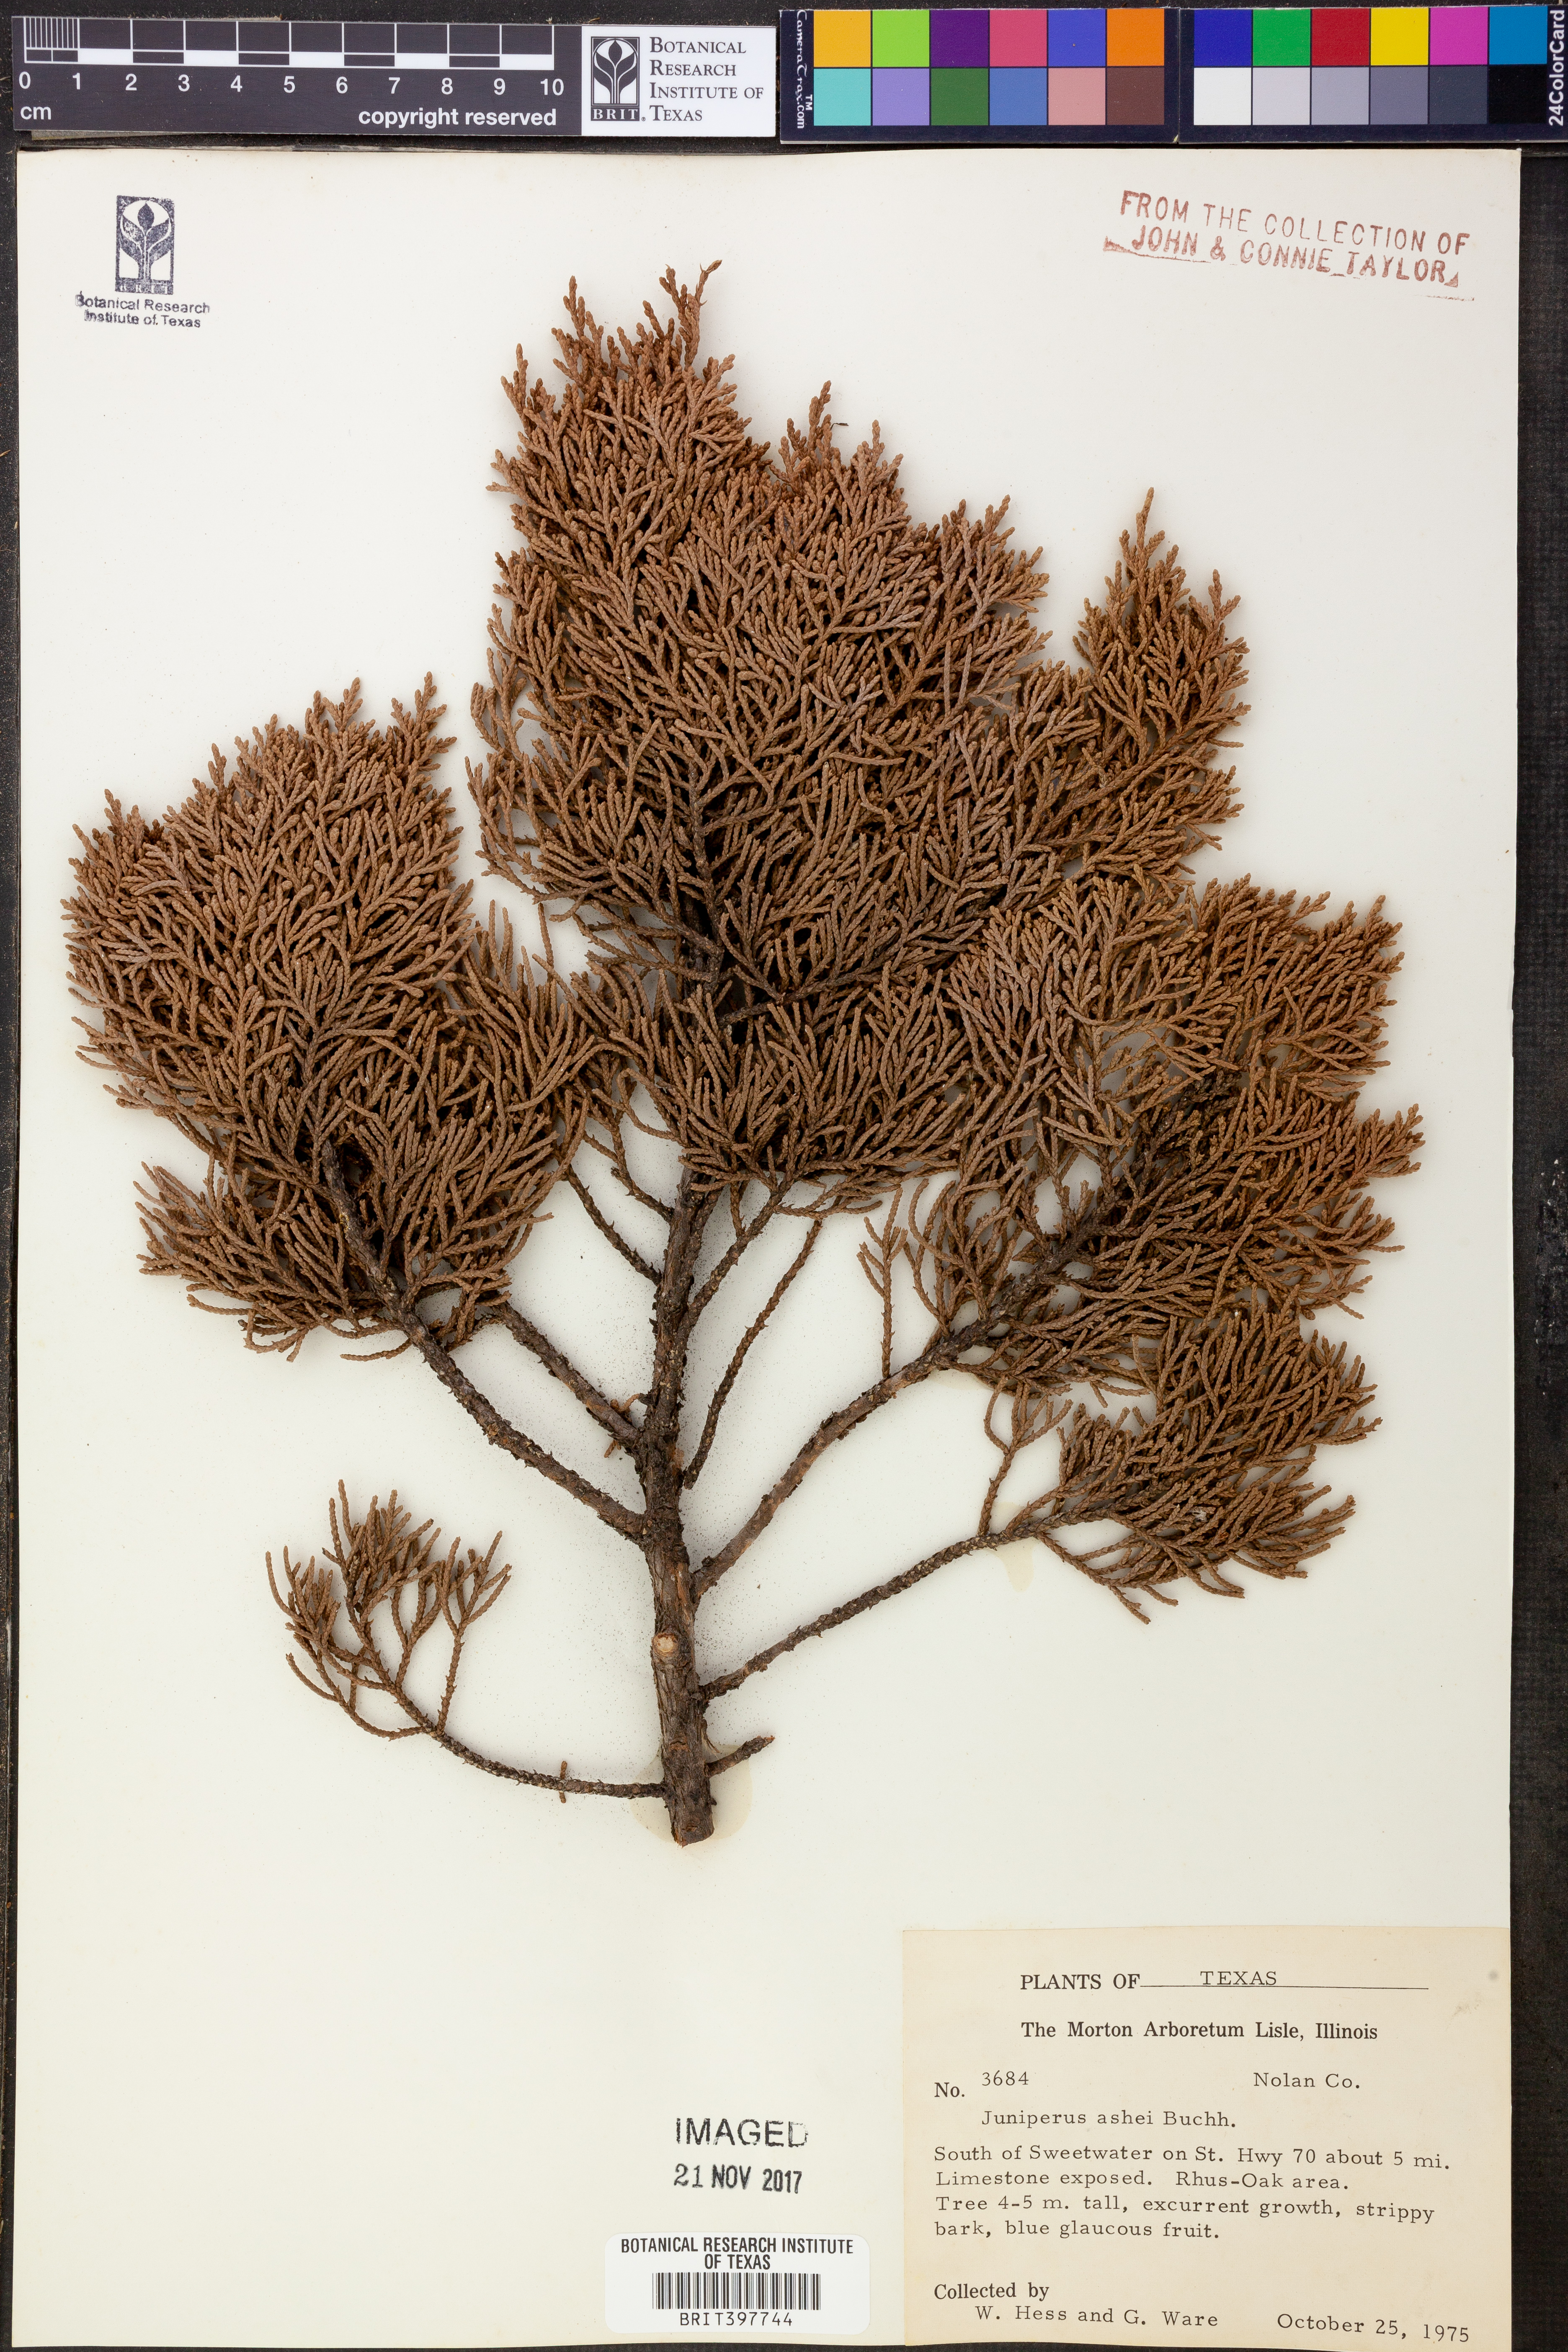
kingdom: Plantae
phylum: Tracheophyta
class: Pinopsida
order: Pinales
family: Cupressaceae
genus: Juniperus
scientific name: Juniperus ashei
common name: Mexican juniper
